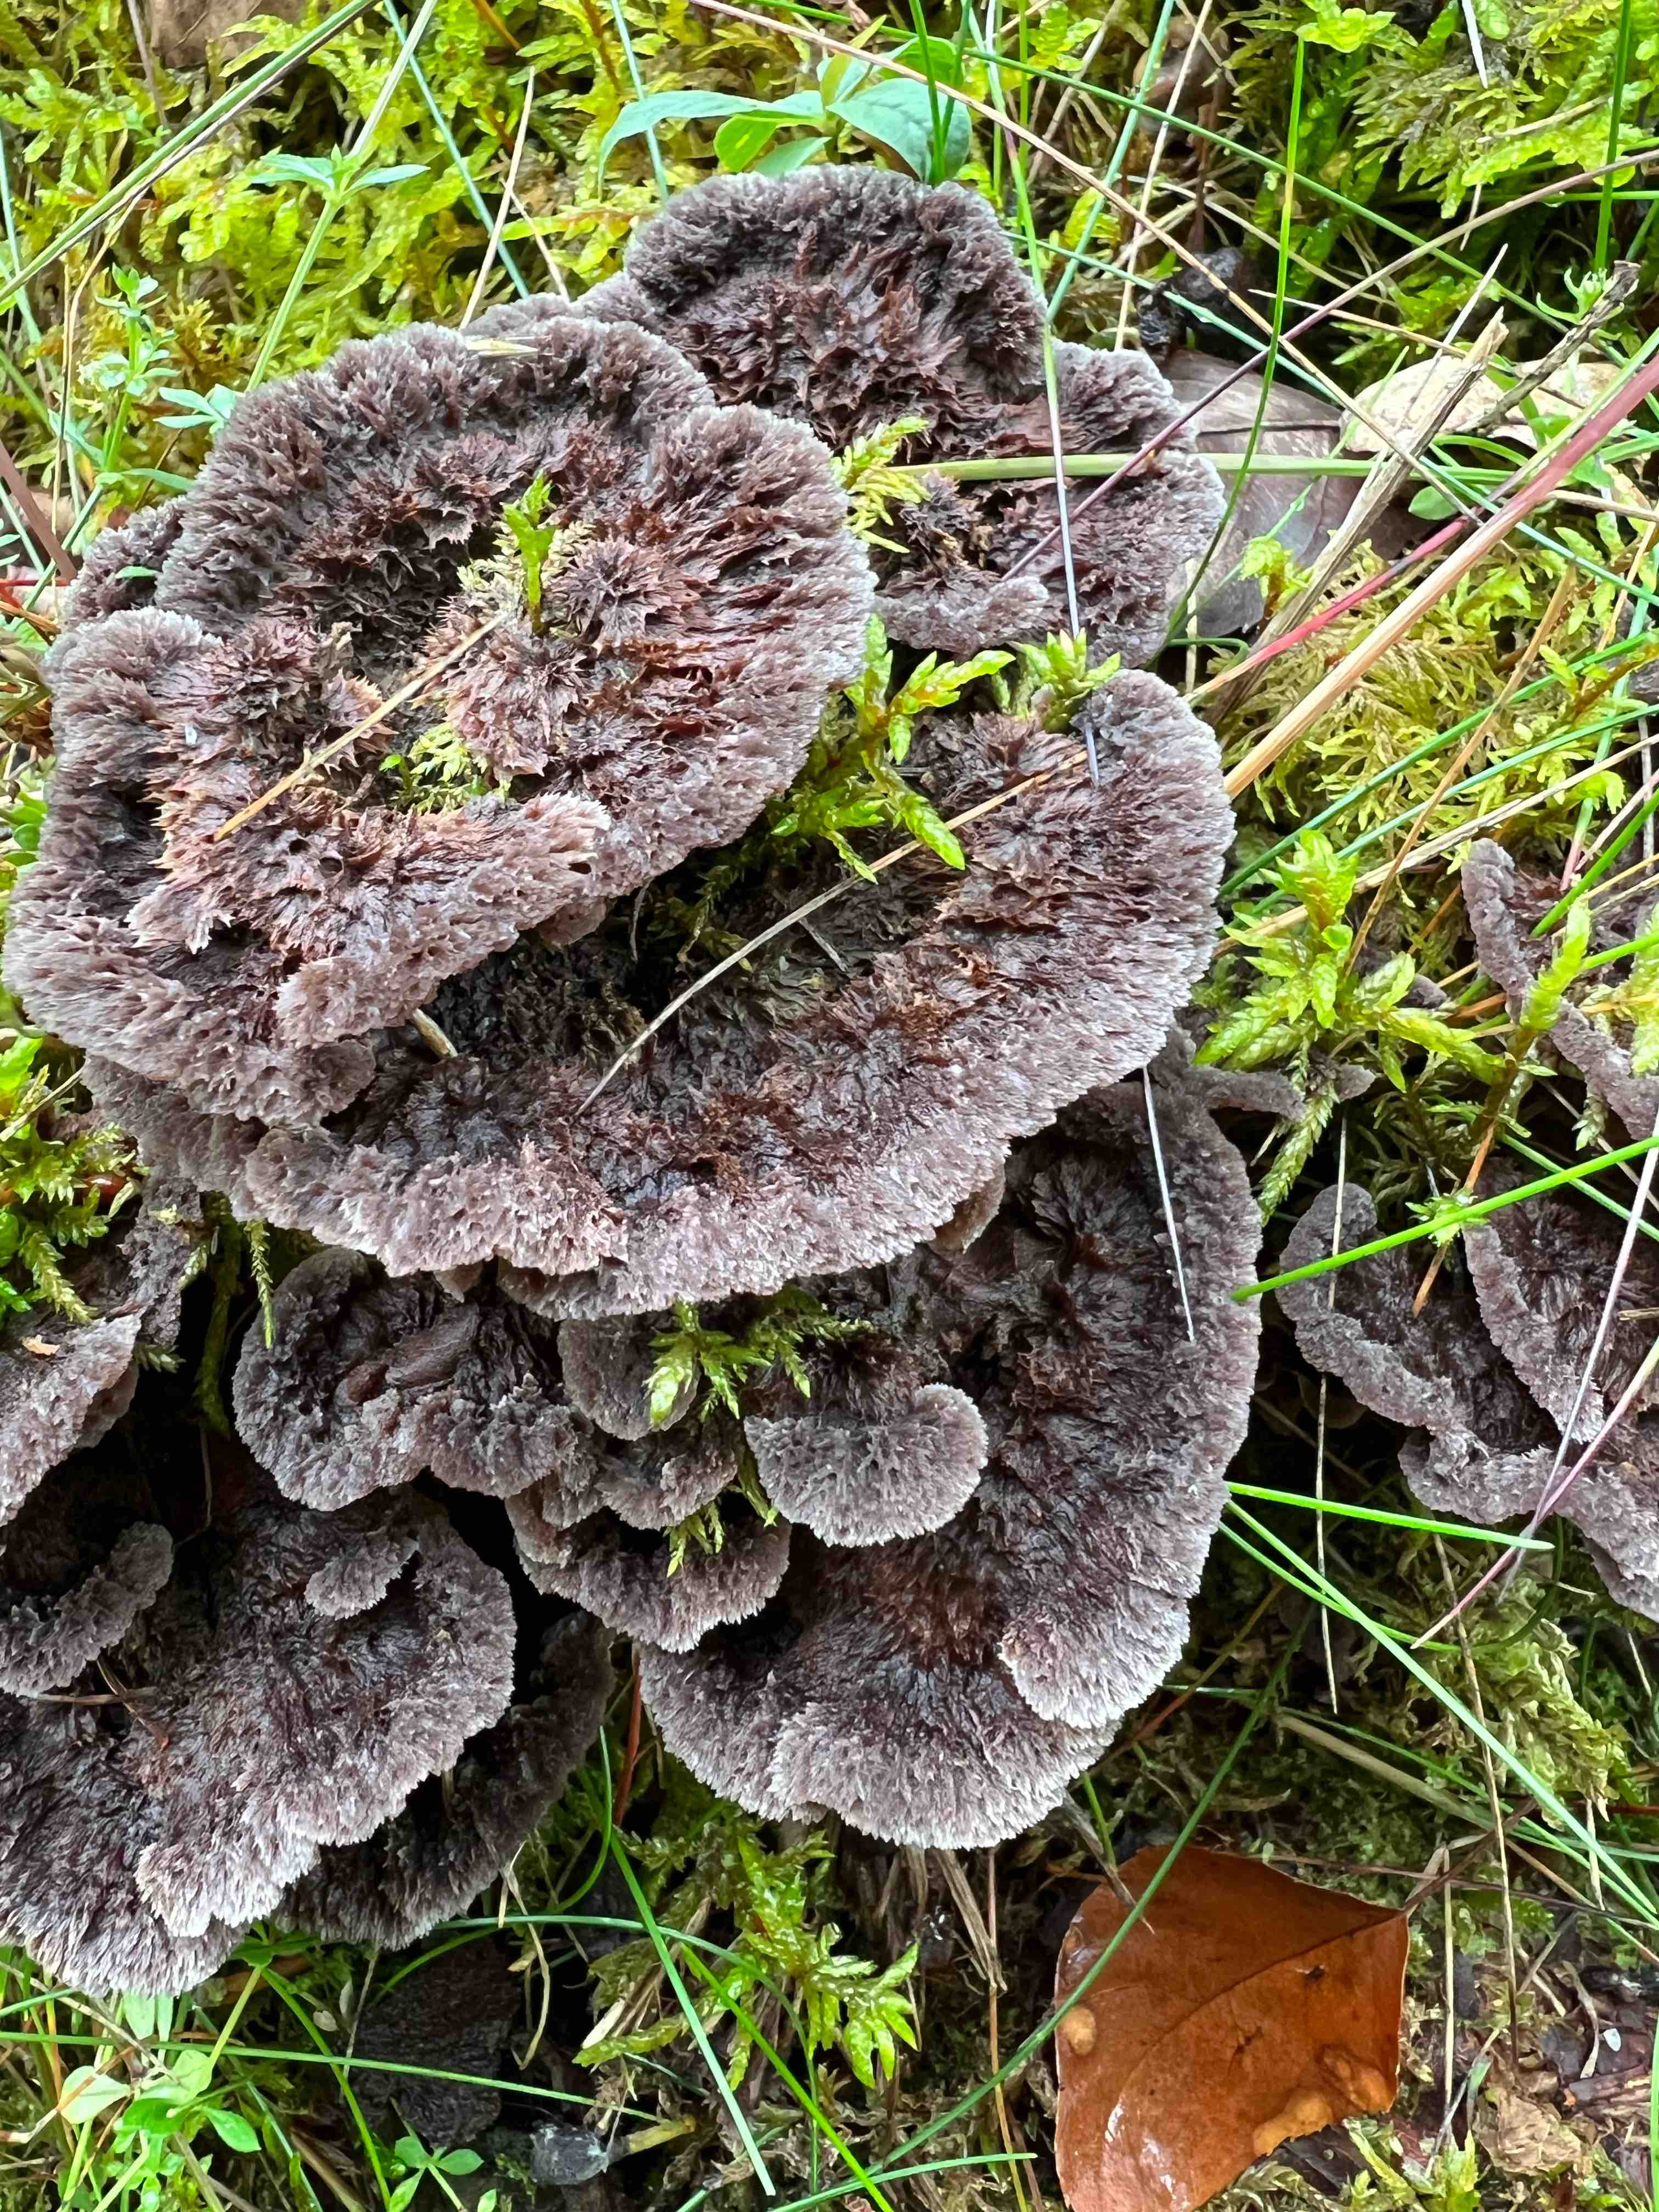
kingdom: Fungi
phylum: Basidiomycota
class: Agaricomycetes
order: Thelephorales
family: Thelephoraceae
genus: Thelephora
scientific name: Thelephora terrestris
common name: fliget frynsesvamp
